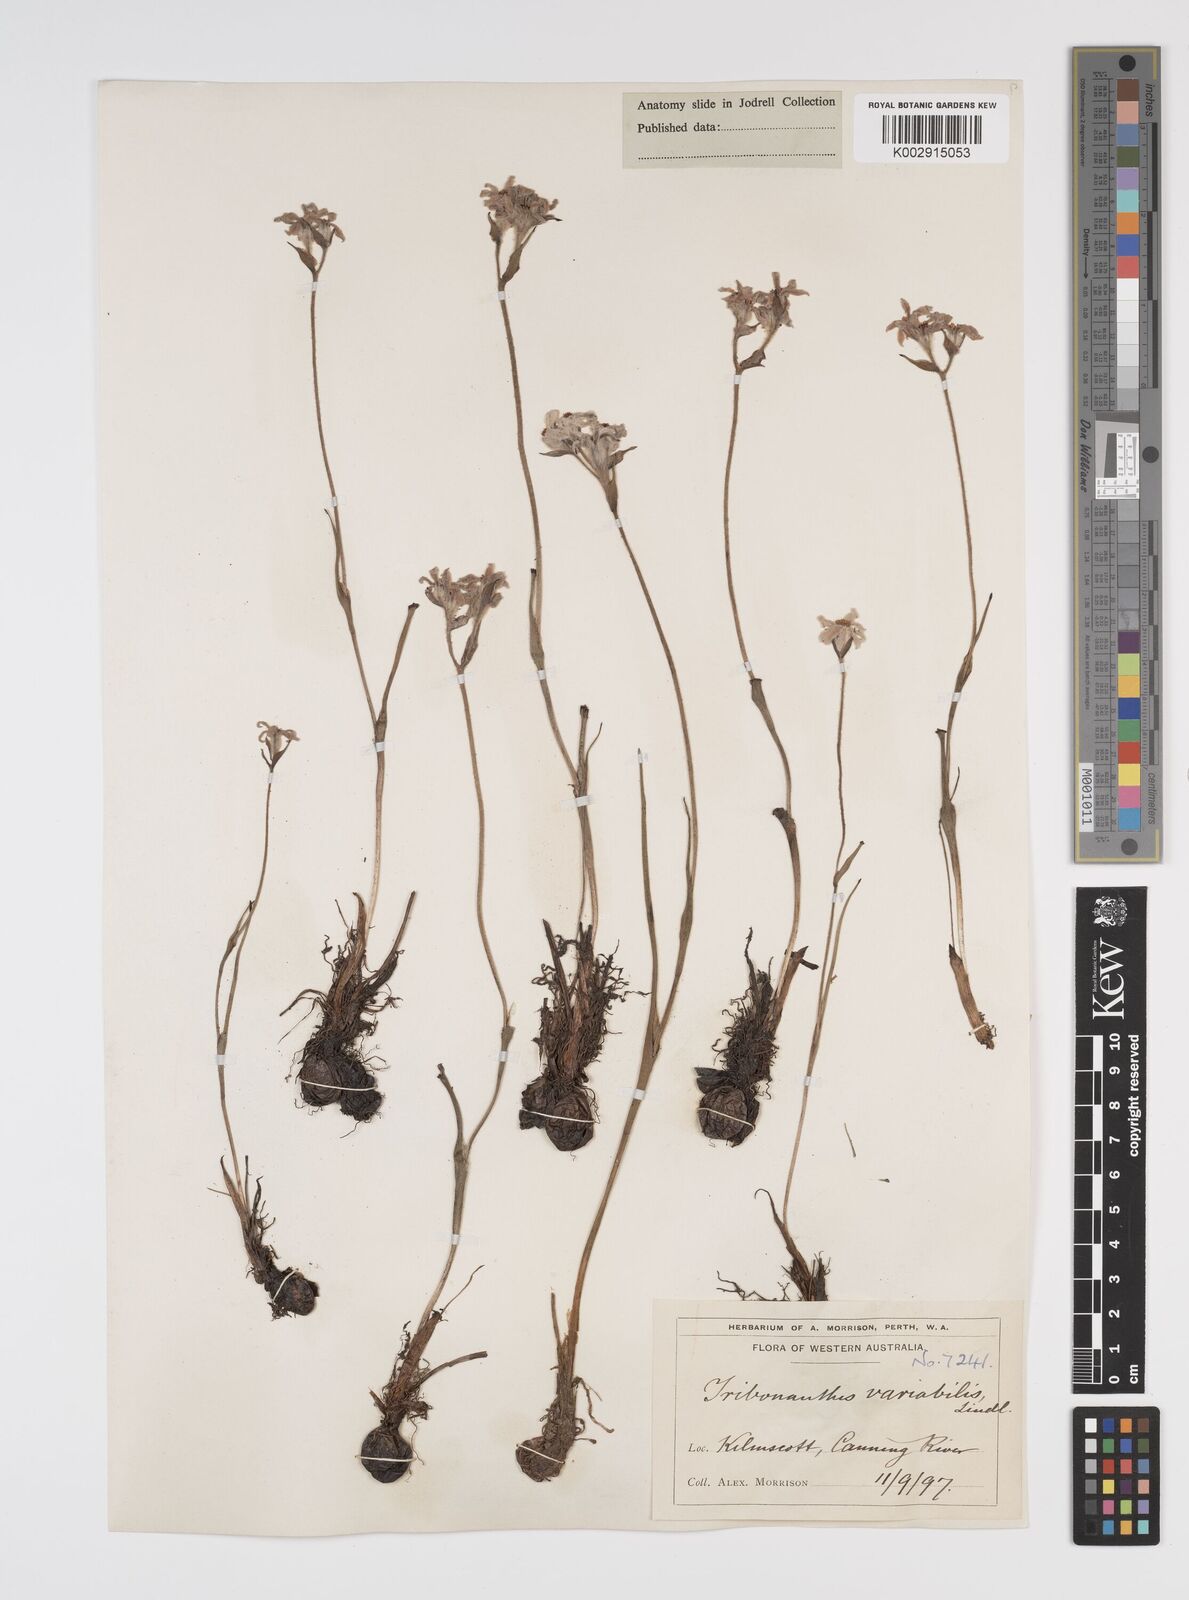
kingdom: Plantae
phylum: Tracheophyta
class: Liliopsida
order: Commelinales
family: Haemodoraceae
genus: Tribonanthes
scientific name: Tribonanthes australis
